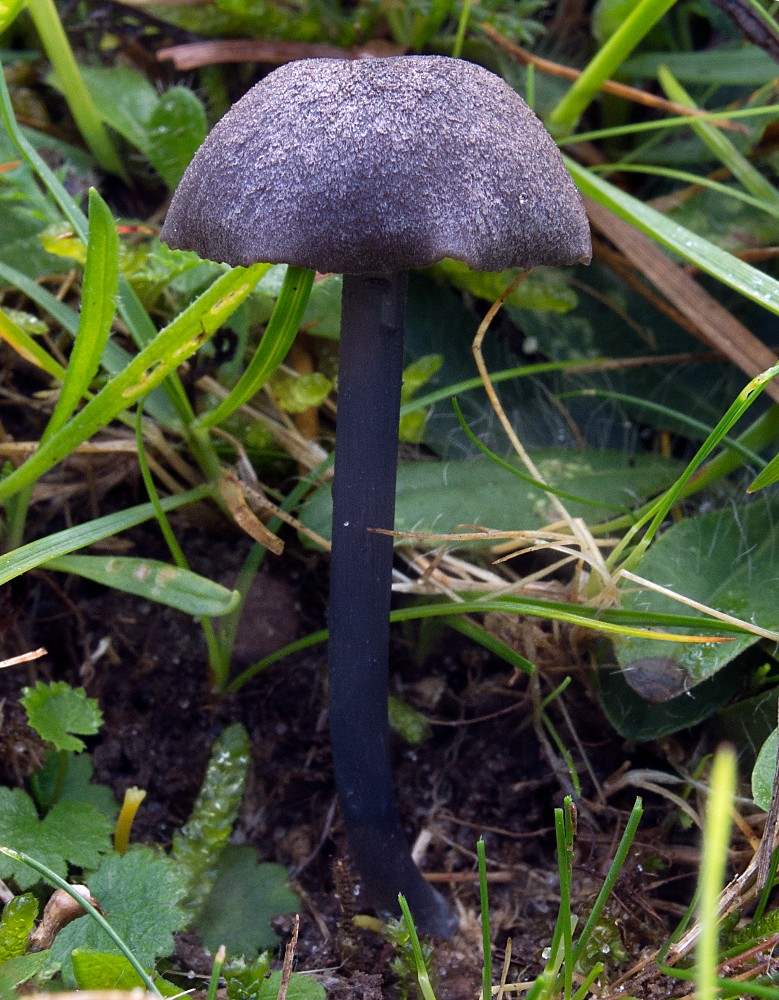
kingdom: Fungi
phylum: Basidiomycota
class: Agaricomycetes
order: Agaricales
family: Entolomataceae
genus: Entoloma
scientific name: Entoloma atrocoeruleum
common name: sortblå rødblad
